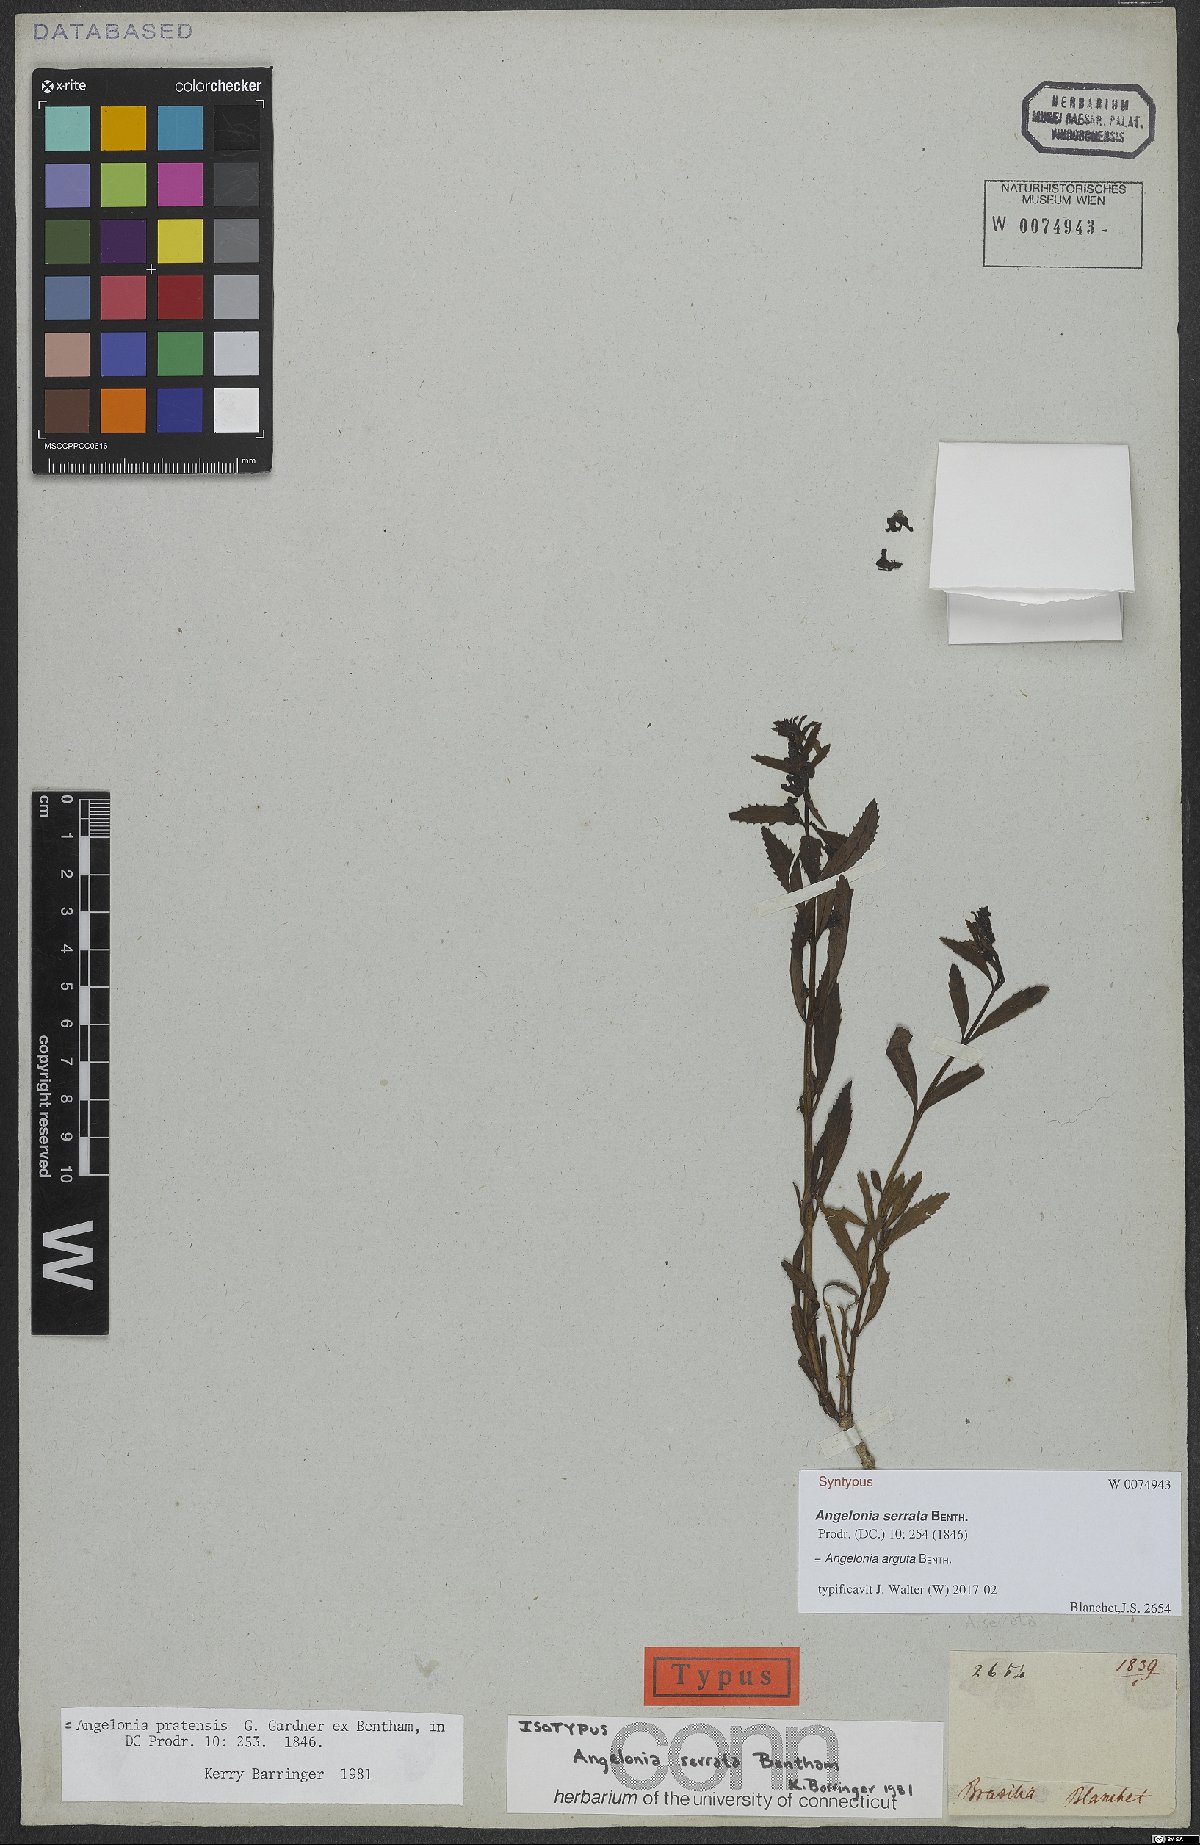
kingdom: Plantae
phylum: Tracheophyta
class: Magnoliopsida
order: Lamiales
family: Plantaginaceae
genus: Angelonia
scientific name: Angelonia arguta
